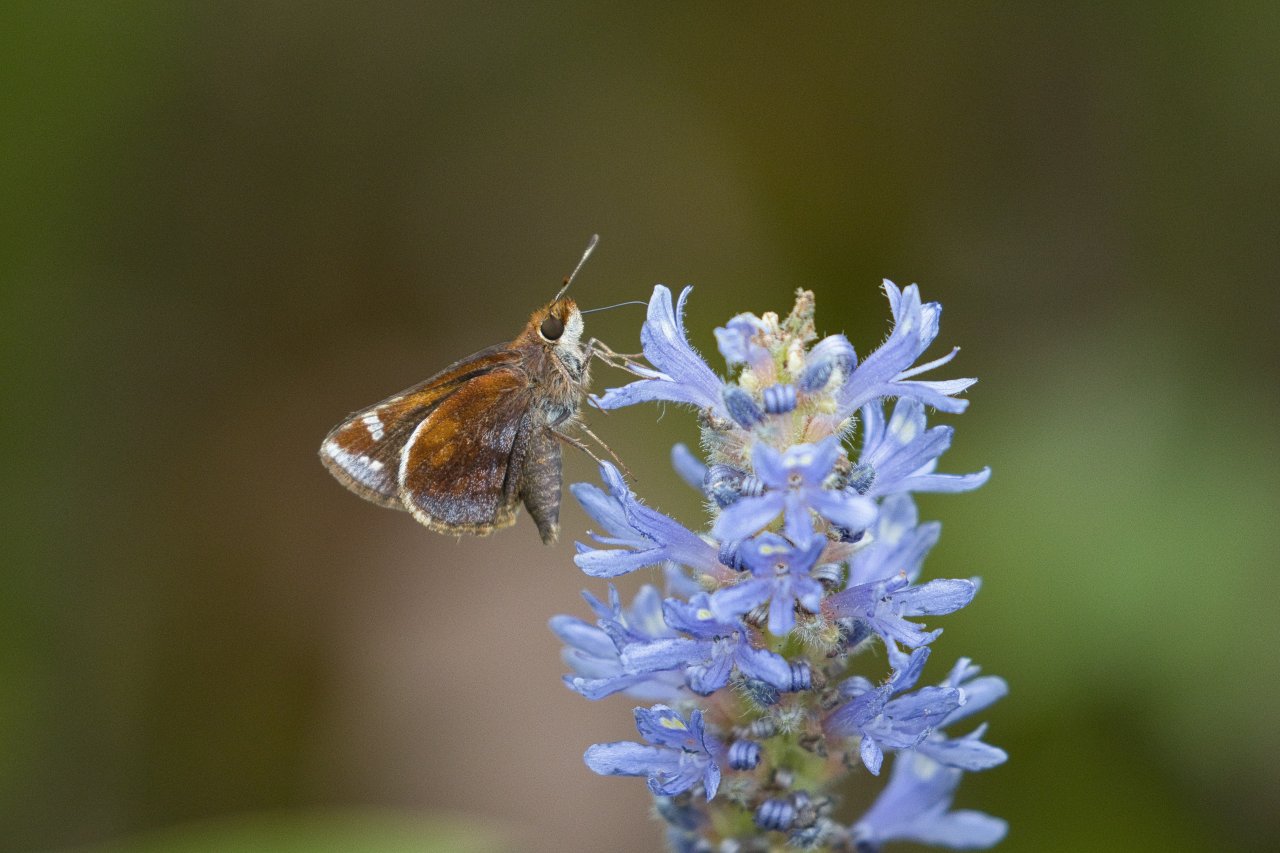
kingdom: Animalia
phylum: Arthropoda
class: Insecta
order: Lepidoptera
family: Hesperiidae
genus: Lon
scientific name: Lon zabulon
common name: Zabulon Skipper
